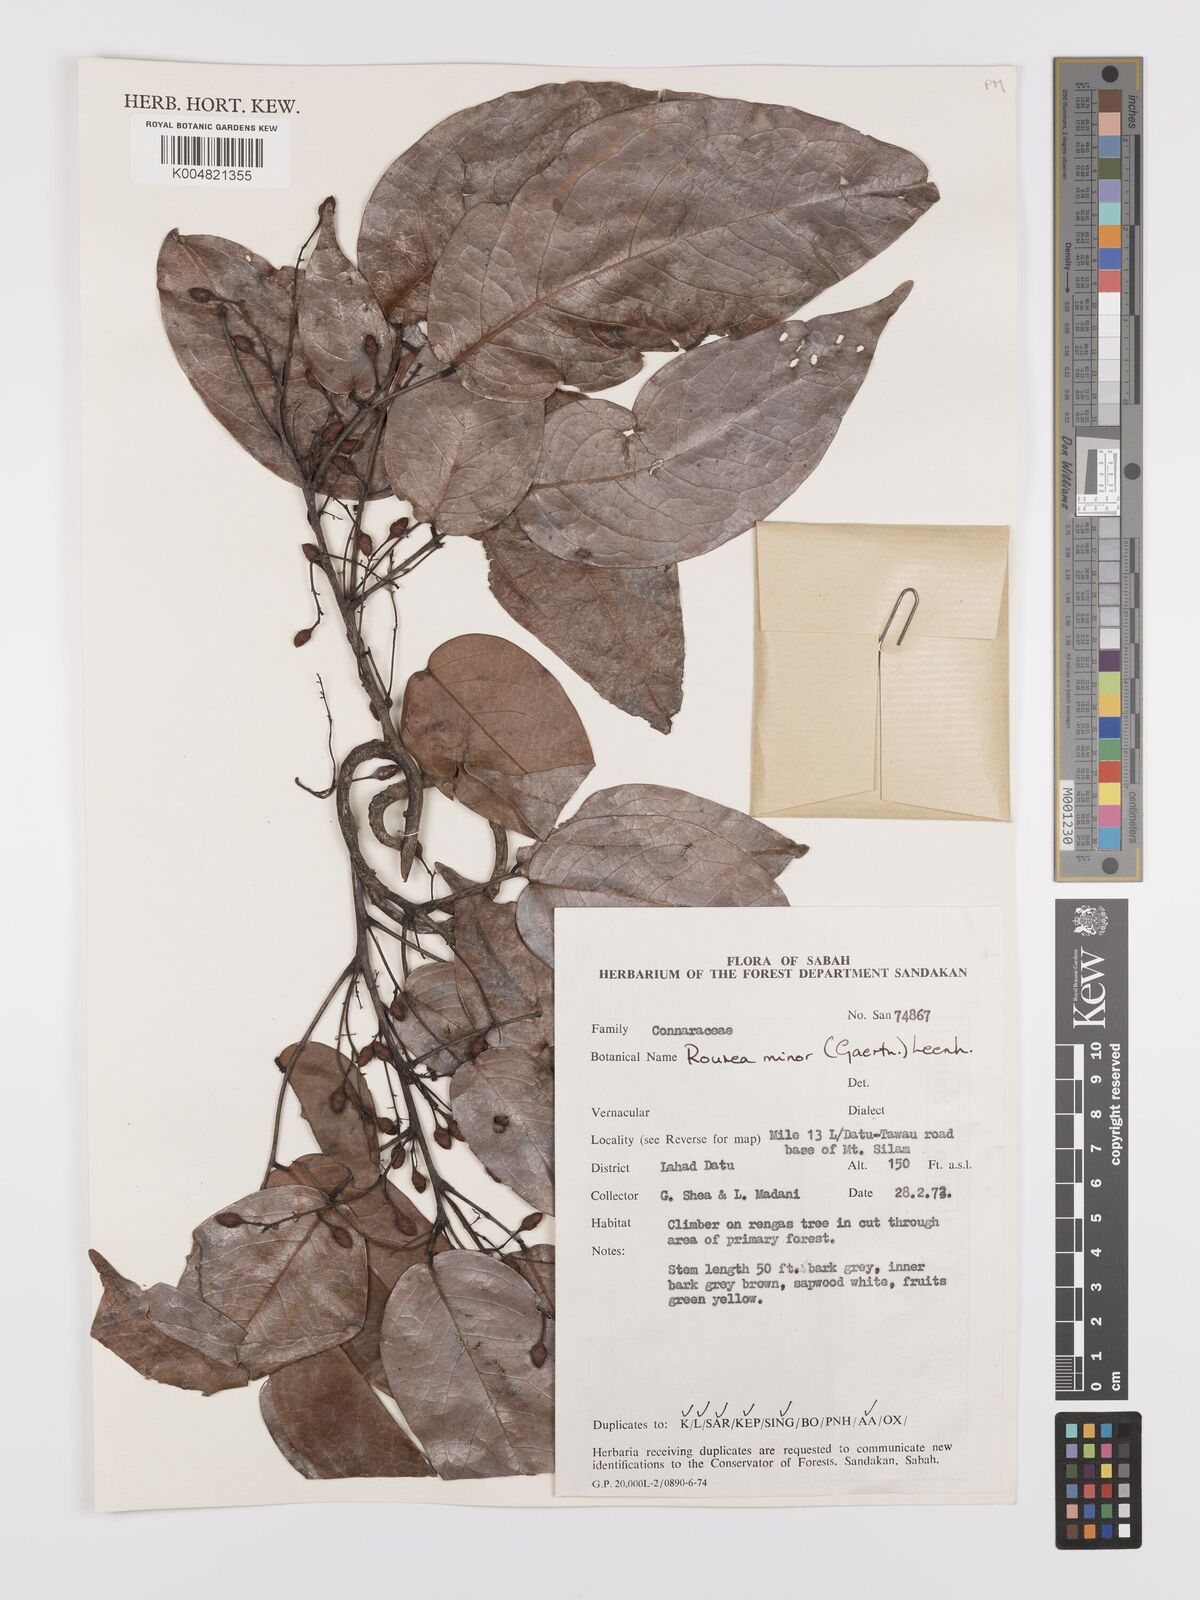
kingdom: Plantae
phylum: Tracheophyta
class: Magnoliopsida
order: Oxalidales
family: Connaraceae
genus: Rourea
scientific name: Rourea minor
